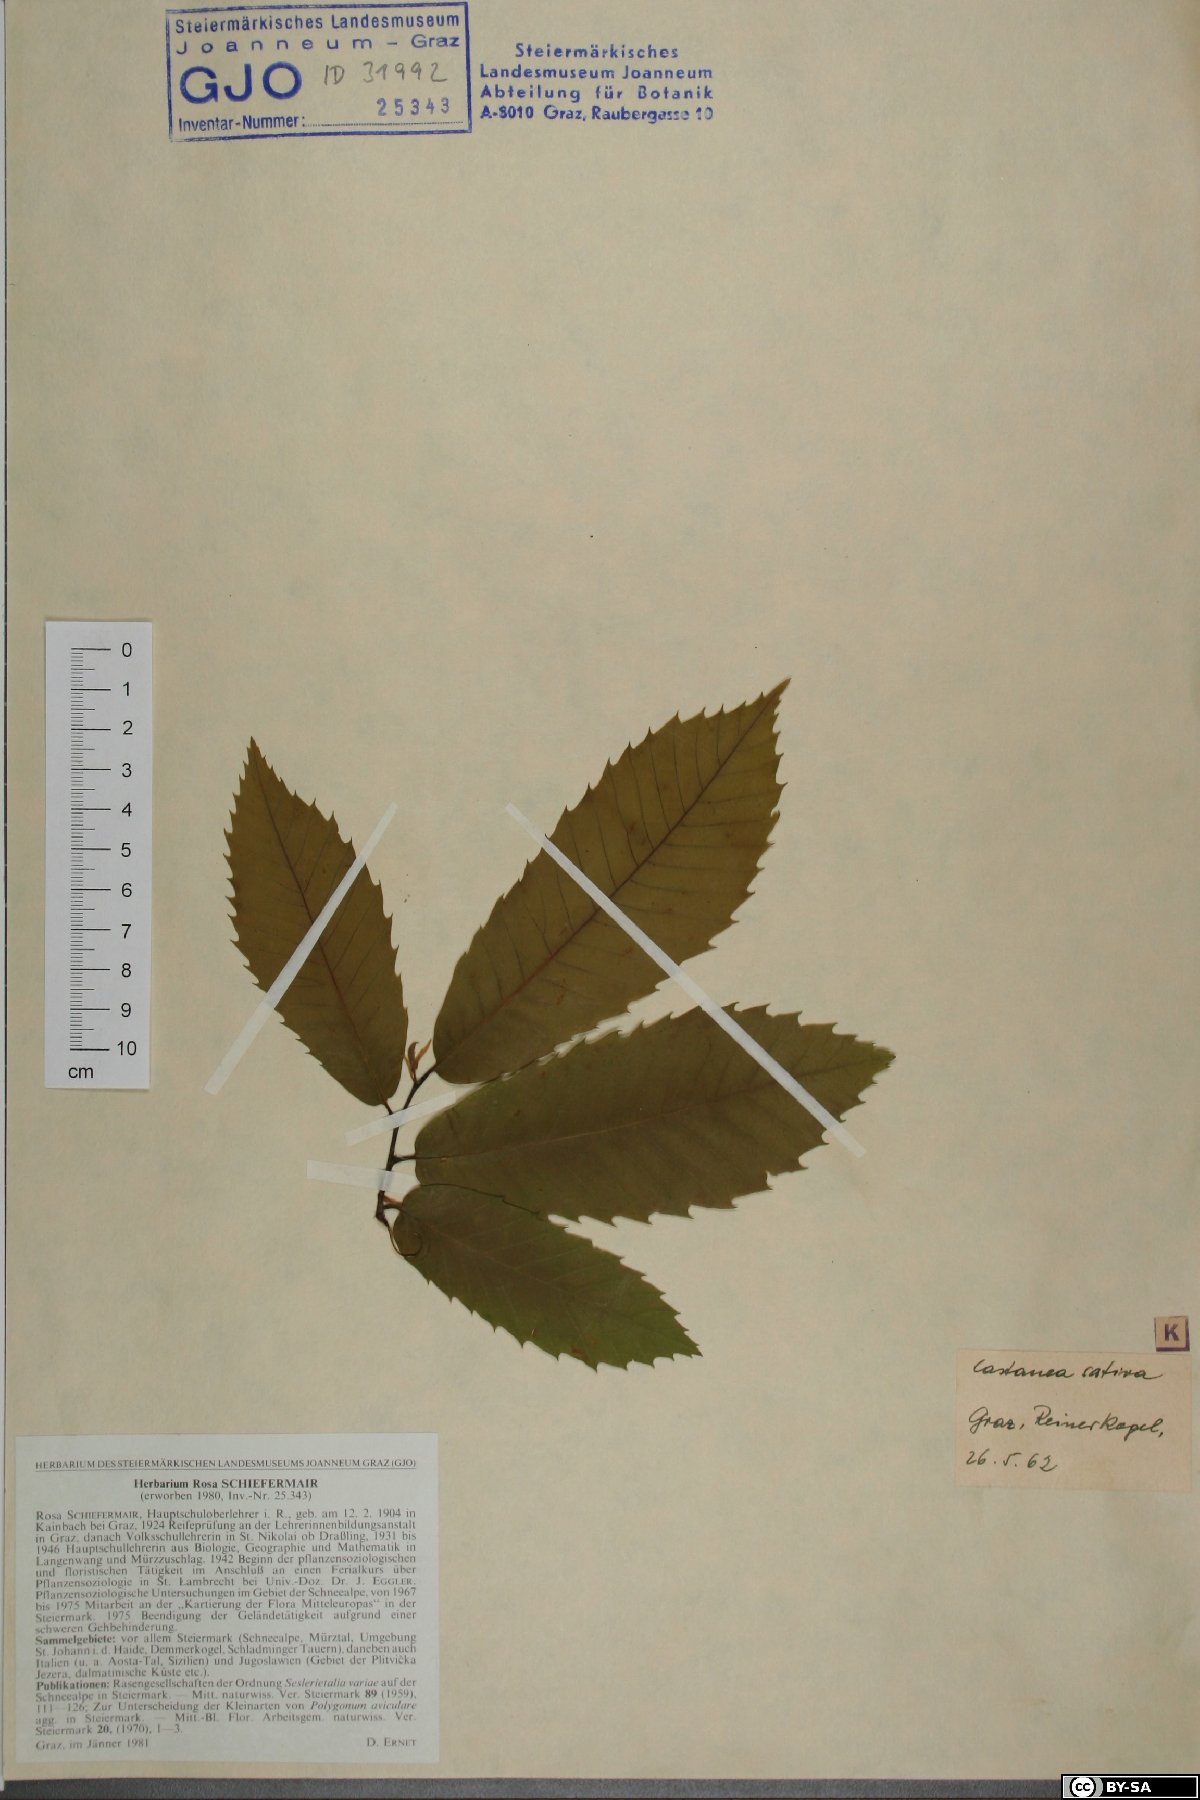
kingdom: Plantae
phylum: Tracheophyta
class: Magnoliopsida
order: Fagales
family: Fagaceae
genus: Castanea
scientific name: Castanea sativa
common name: Sweet chestnut
